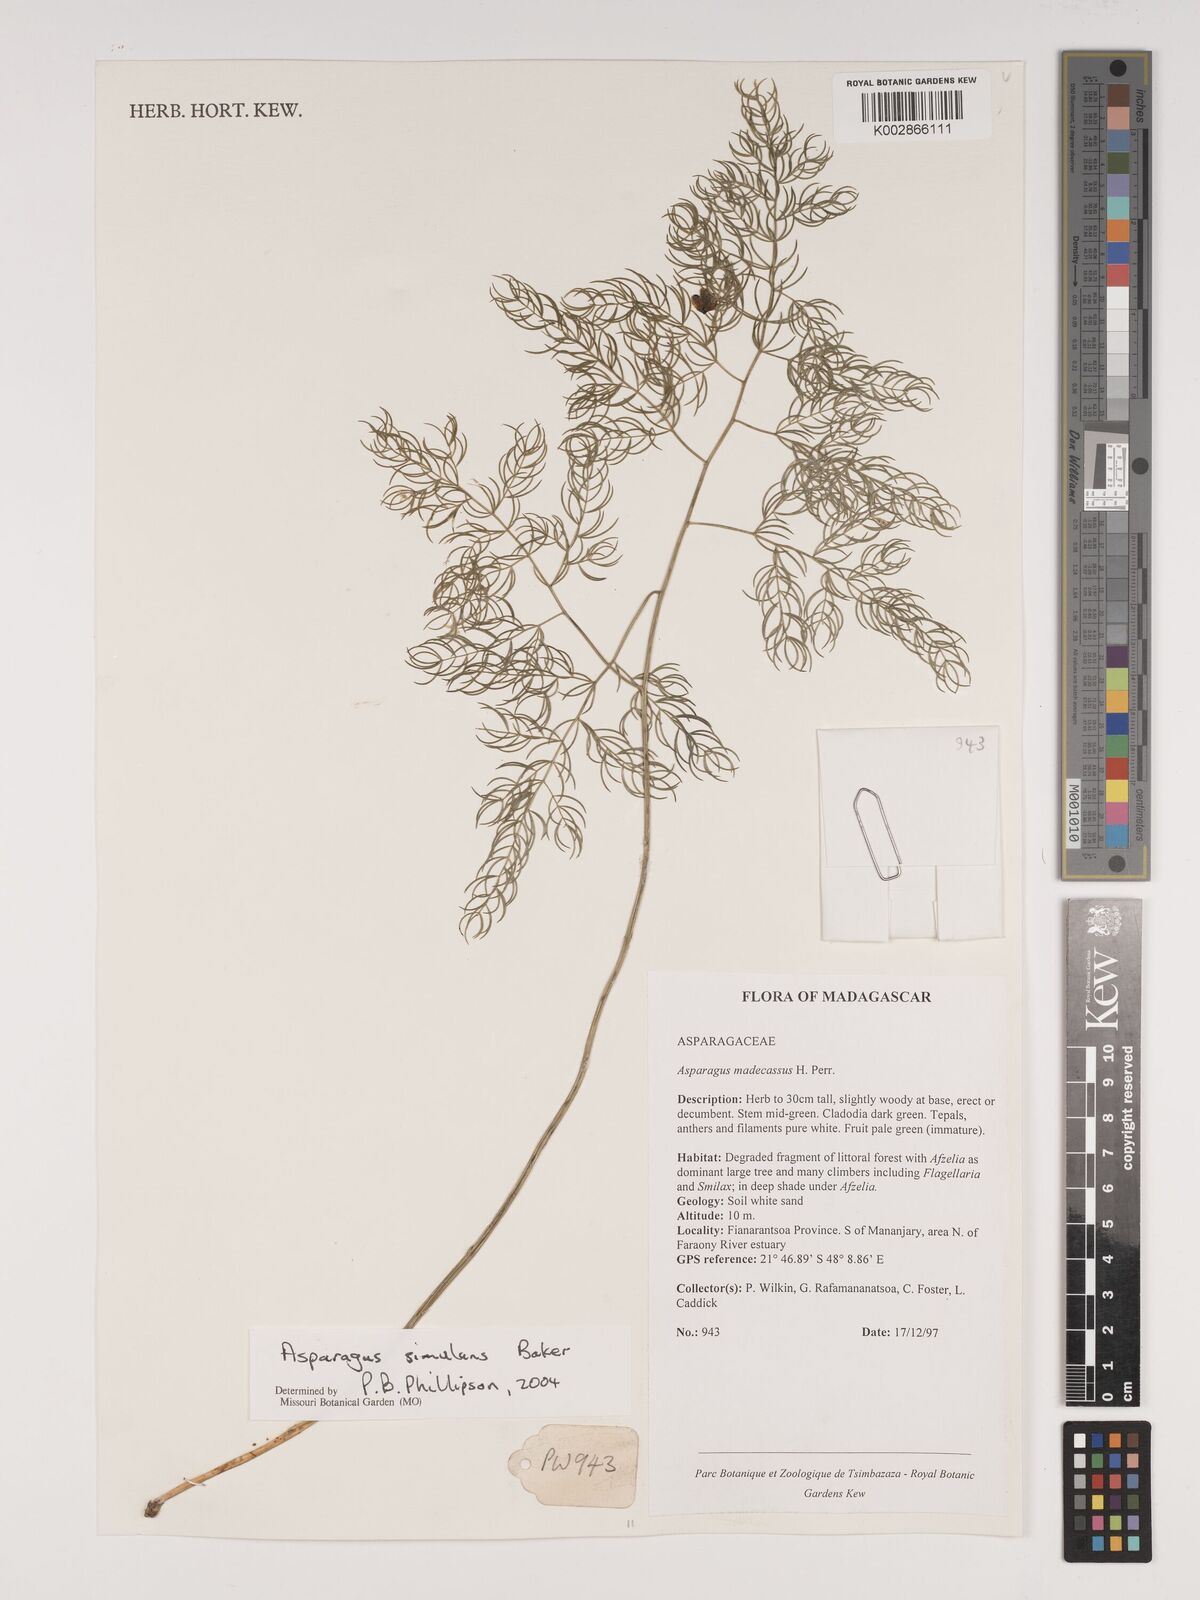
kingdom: Plantae
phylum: Tracheophyta
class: Liliopsida
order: Asparagales
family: Asparagaceae
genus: Asparagus
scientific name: Asparagus simulans
